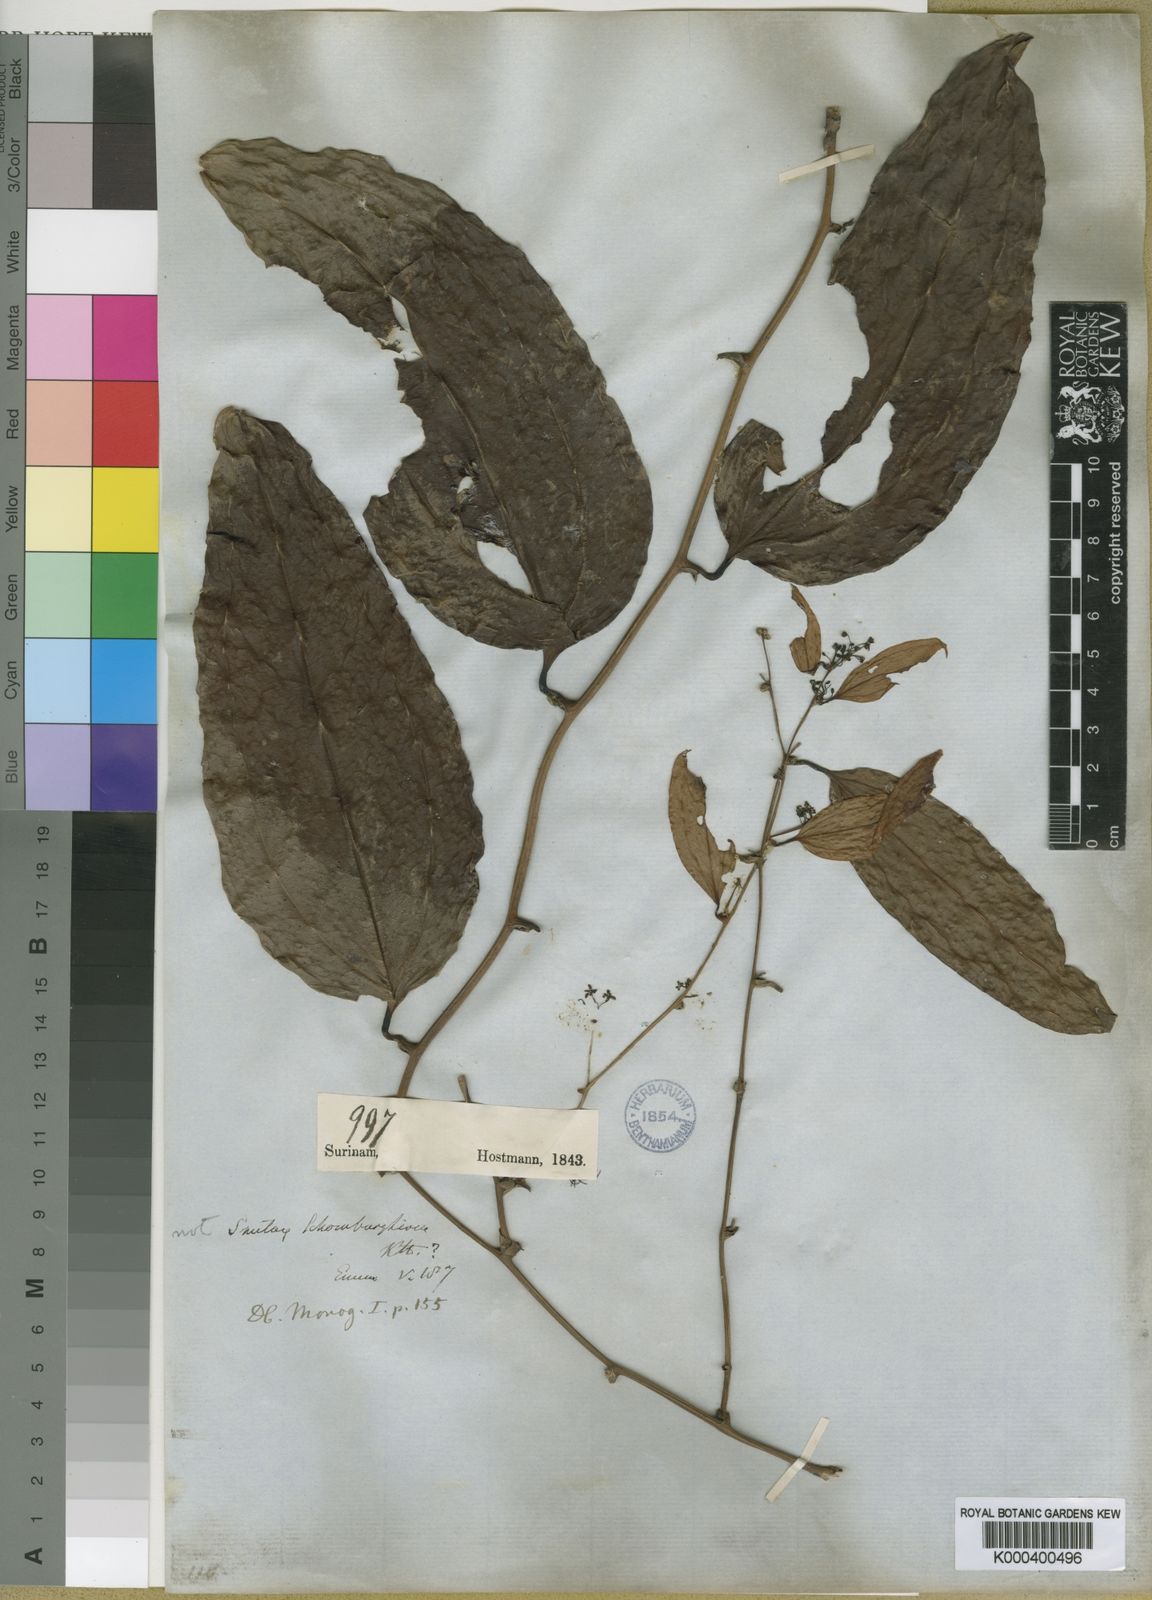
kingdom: Plantae
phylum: Tracheophyta
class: Liliopsida
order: Liliales
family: Smilacaceae
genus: Smilax
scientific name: Smilax schomburgkiana
